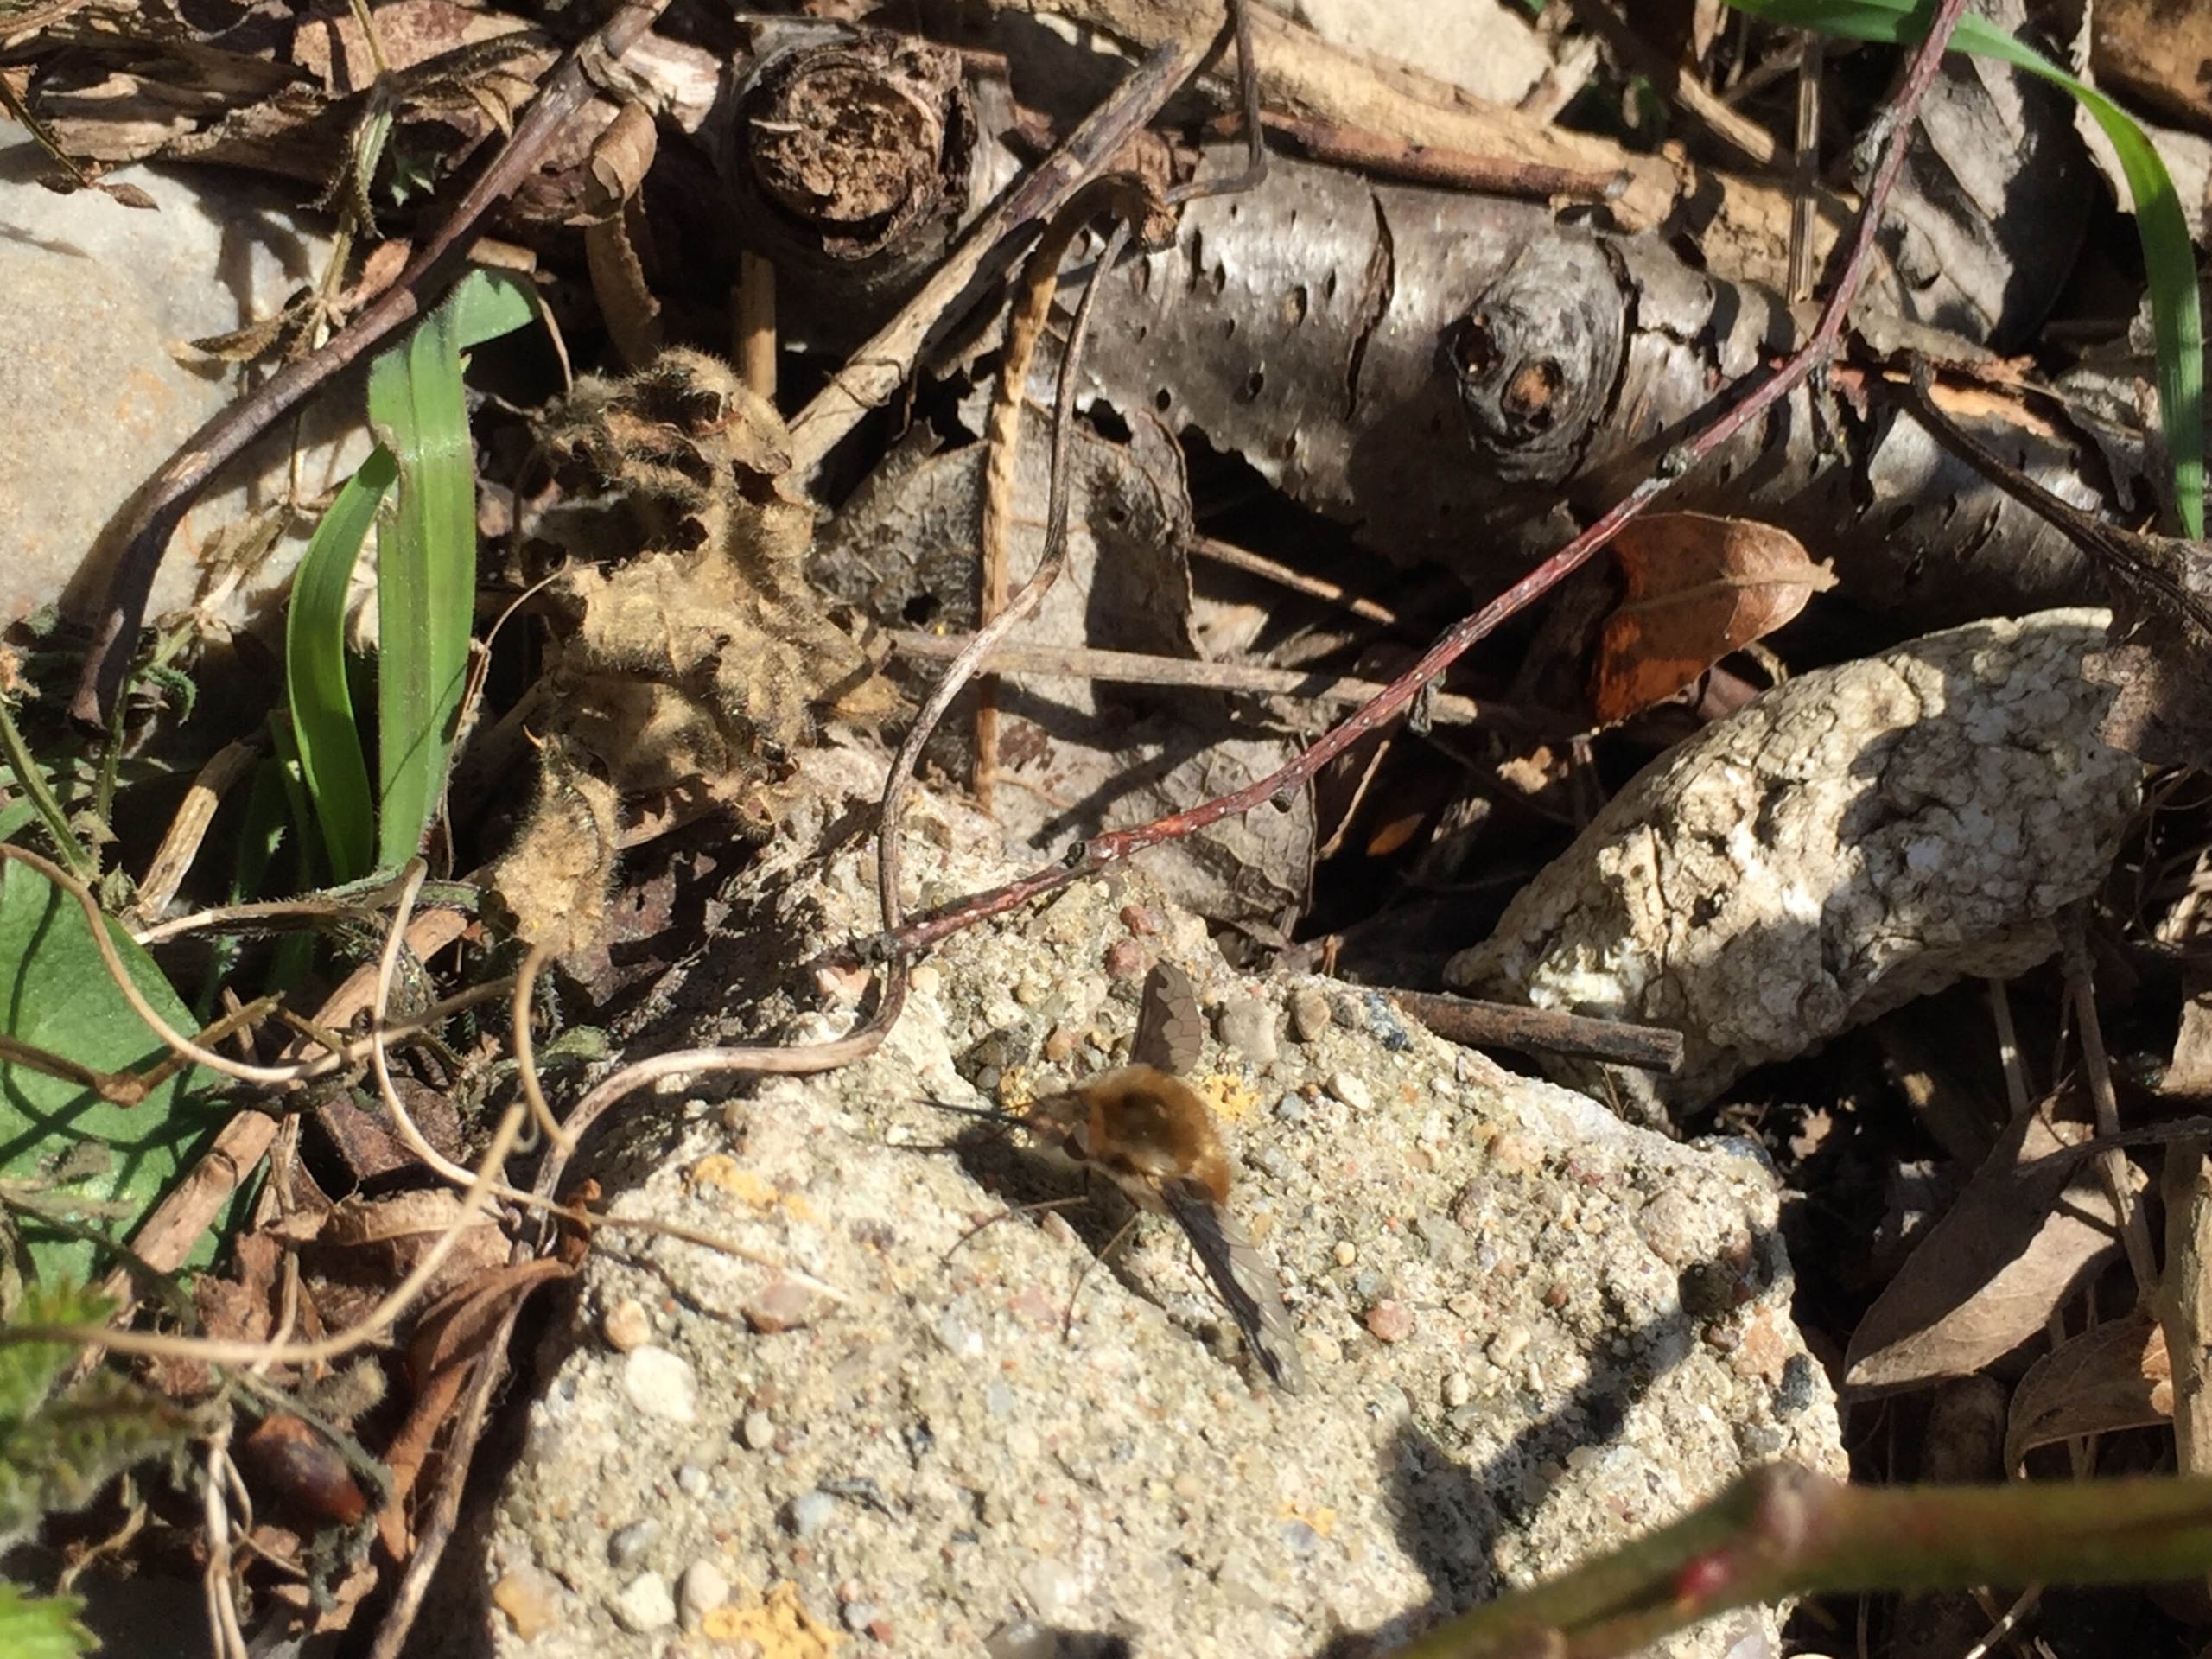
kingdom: Animalia
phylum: Arthropoda
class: Insecta
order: Diptera
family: Bombyliidae
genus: Bombylius
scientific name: Bombylius major
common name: Stor humleflue
